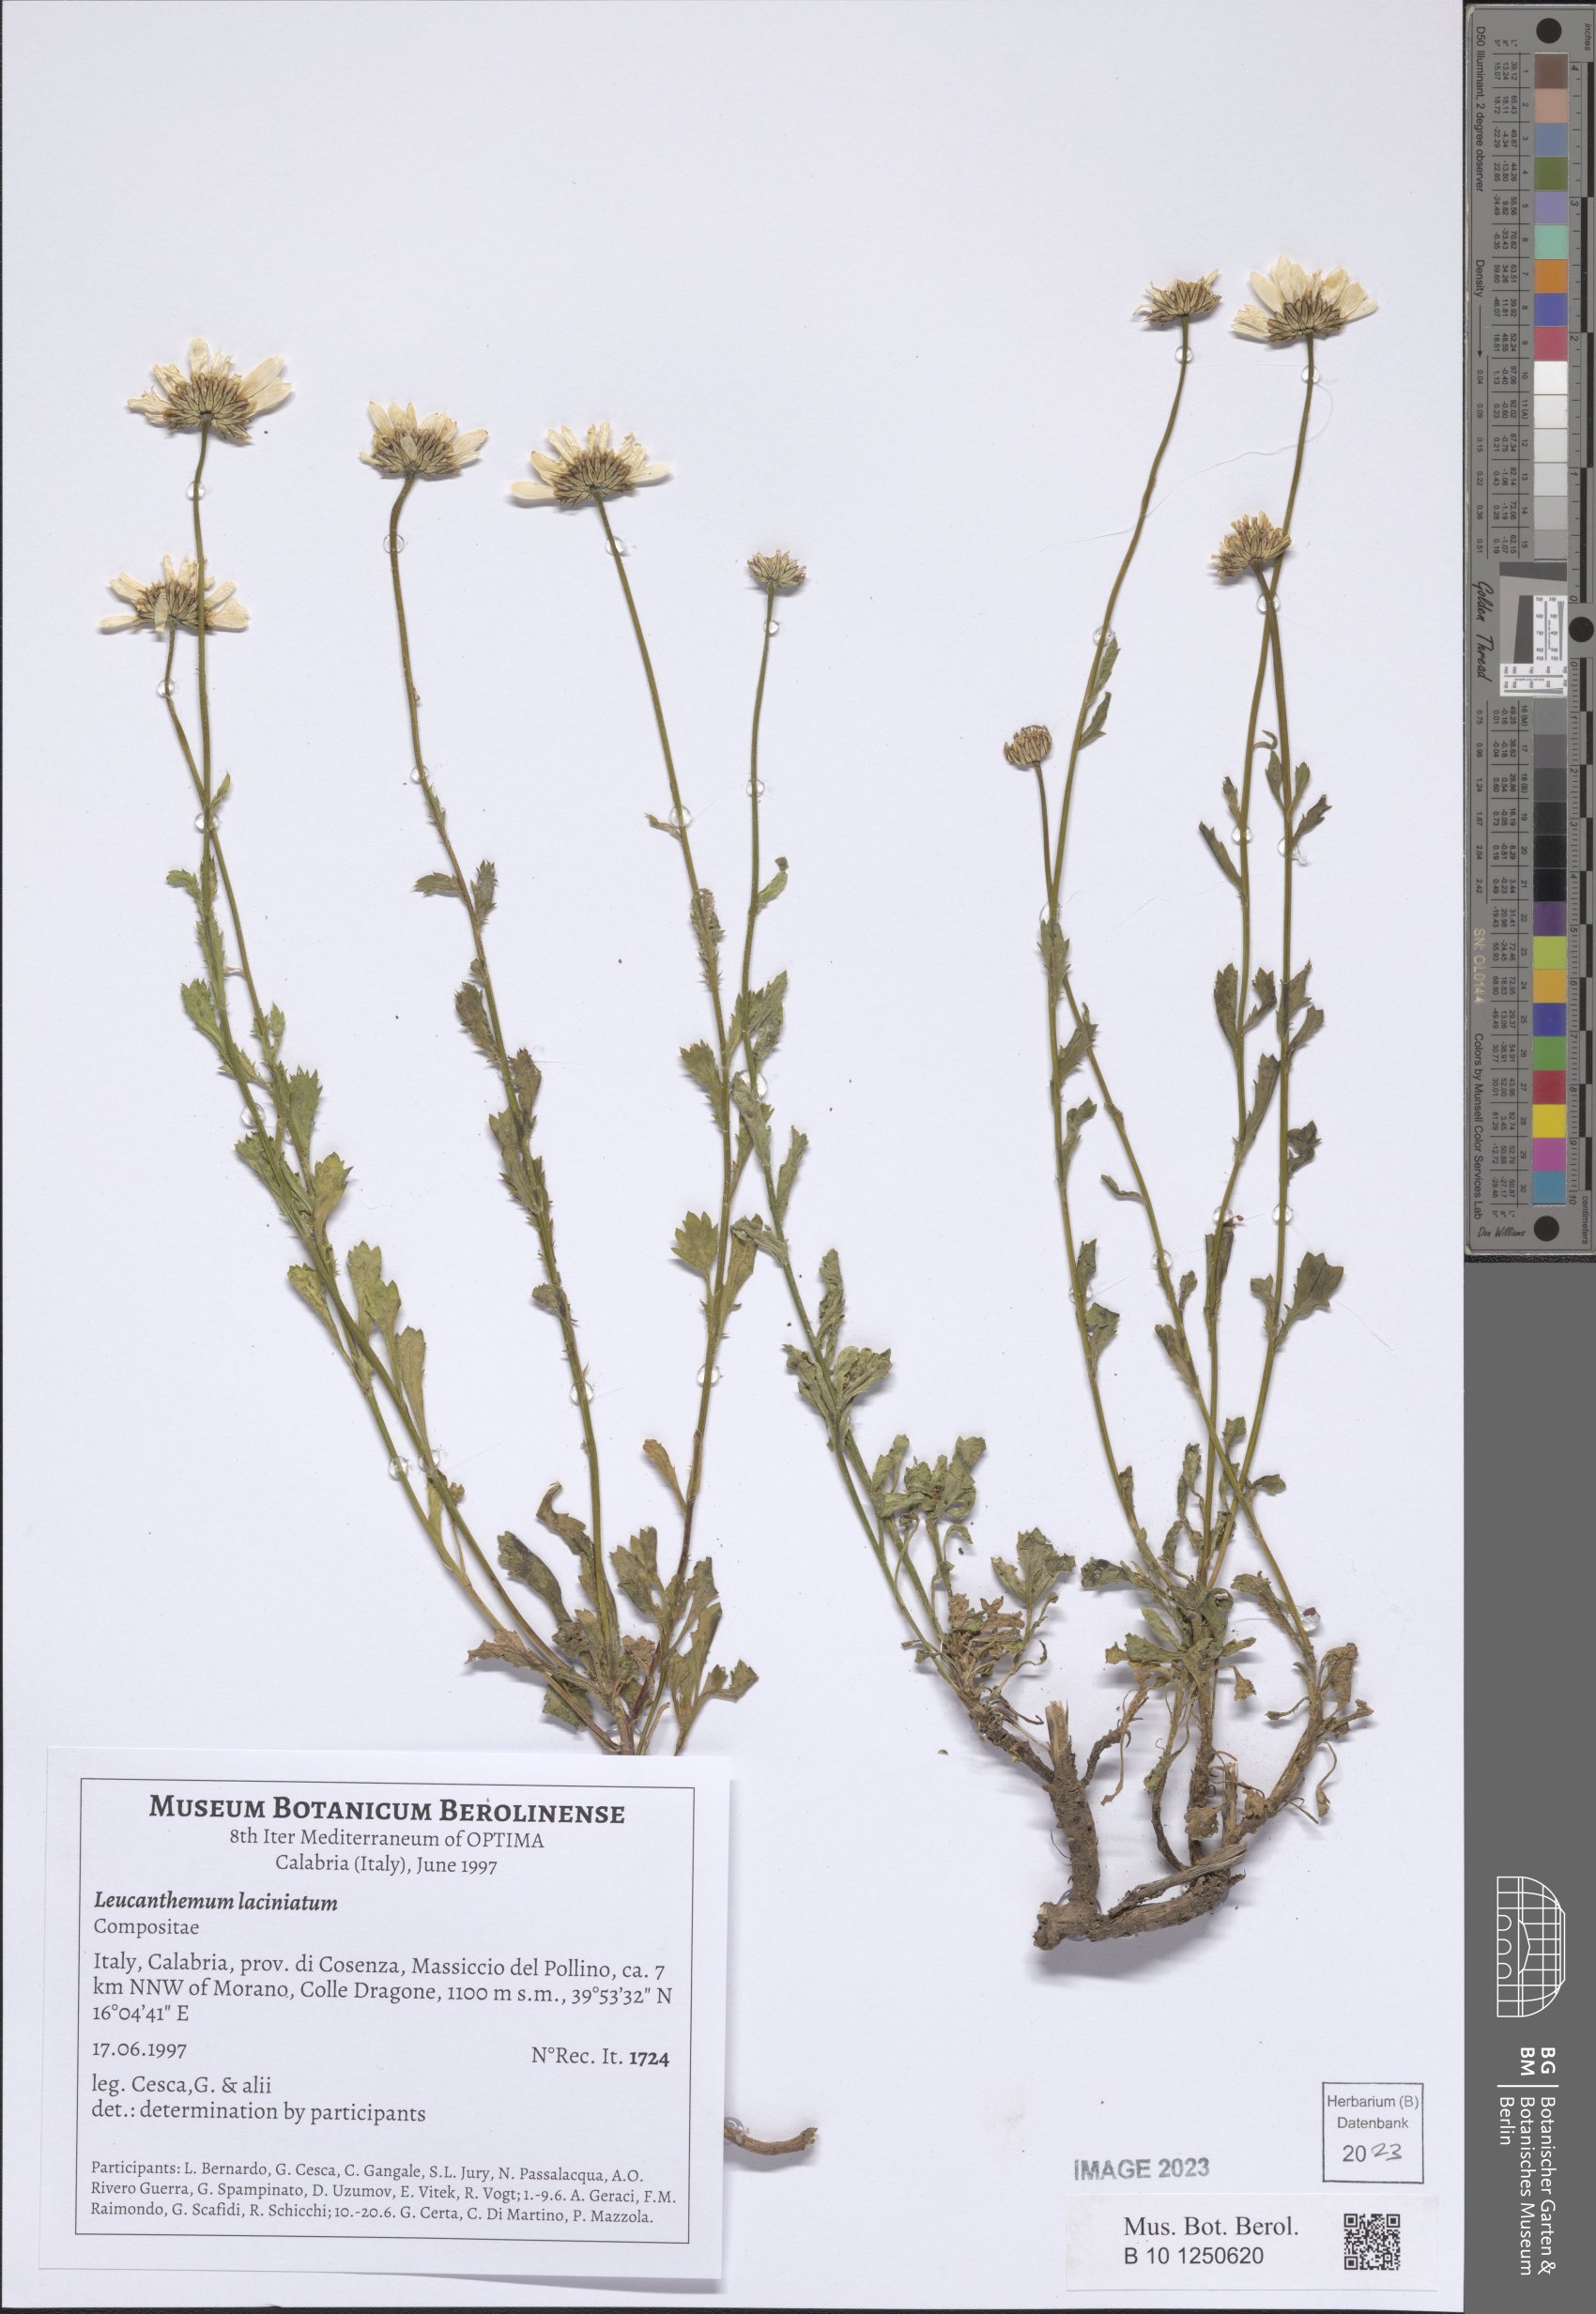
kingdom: Plantae
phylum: Tracheophyta
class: Magnoliopsida
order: Asterales
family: Asteraceae
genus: Leucanthemum
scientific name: Leucanthemum laciniatum
